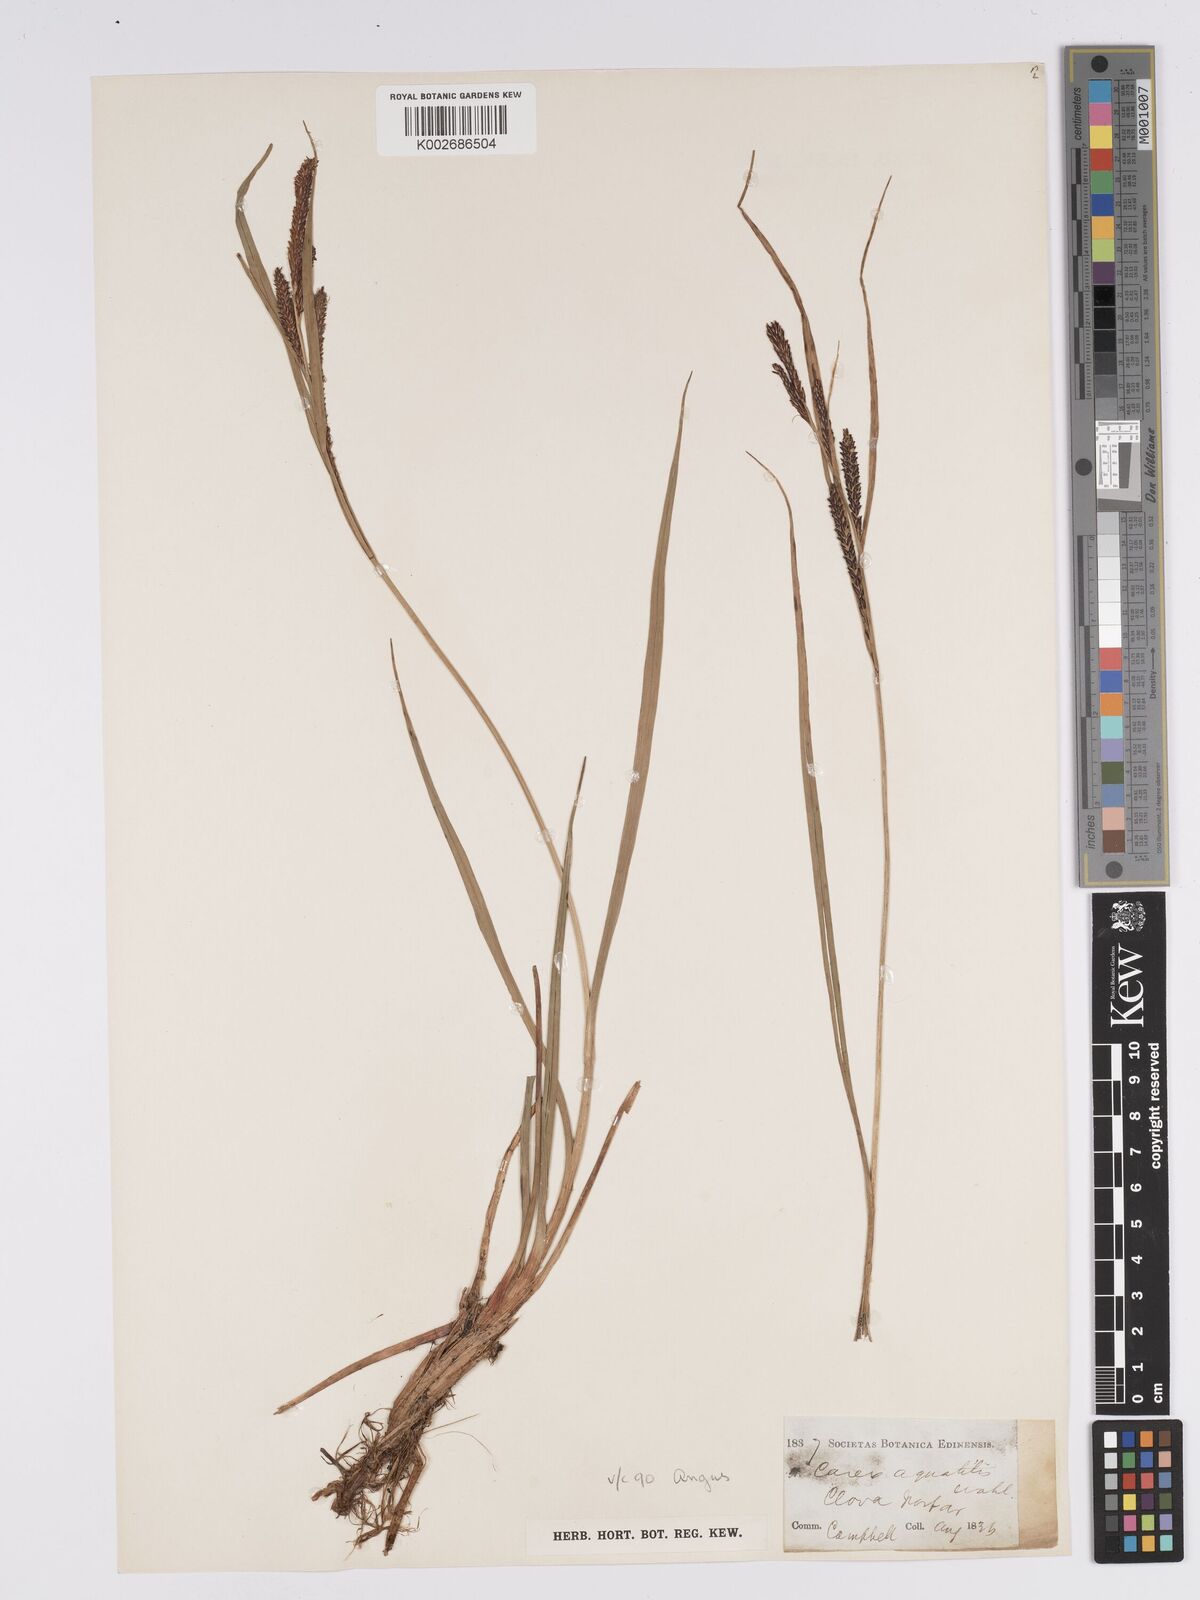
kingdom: Plantae
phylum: Tracheophyta
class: Liliopsida
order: Poales
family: Cyperaceae
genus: Carex
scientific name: Carex aquatilis
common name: Water sedge
